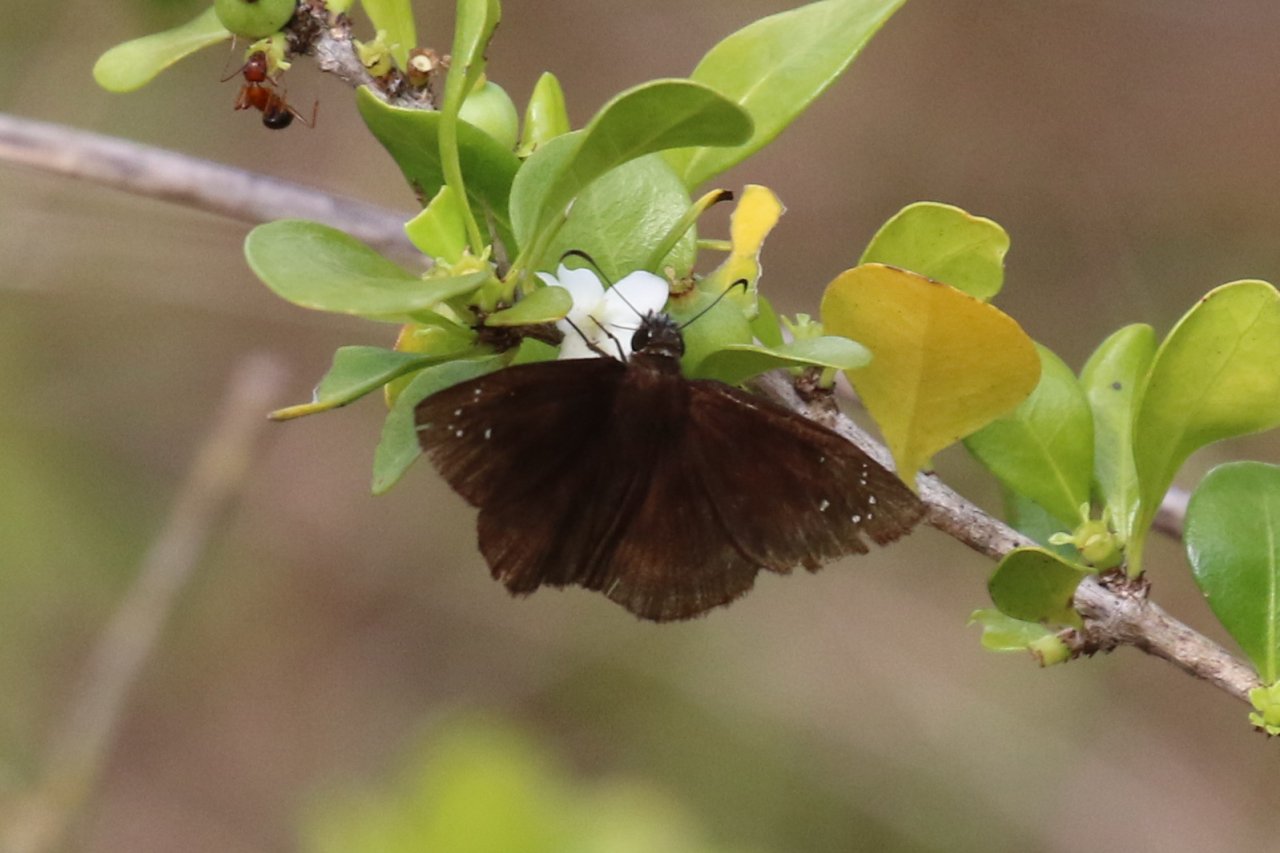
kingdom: Animalia
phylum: Arthropoda
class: Insecta
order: Lepidoptera
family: Hesperiidae
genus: Ephyriades
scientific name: Ephyriades brunnea
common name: Florida Duskywing
